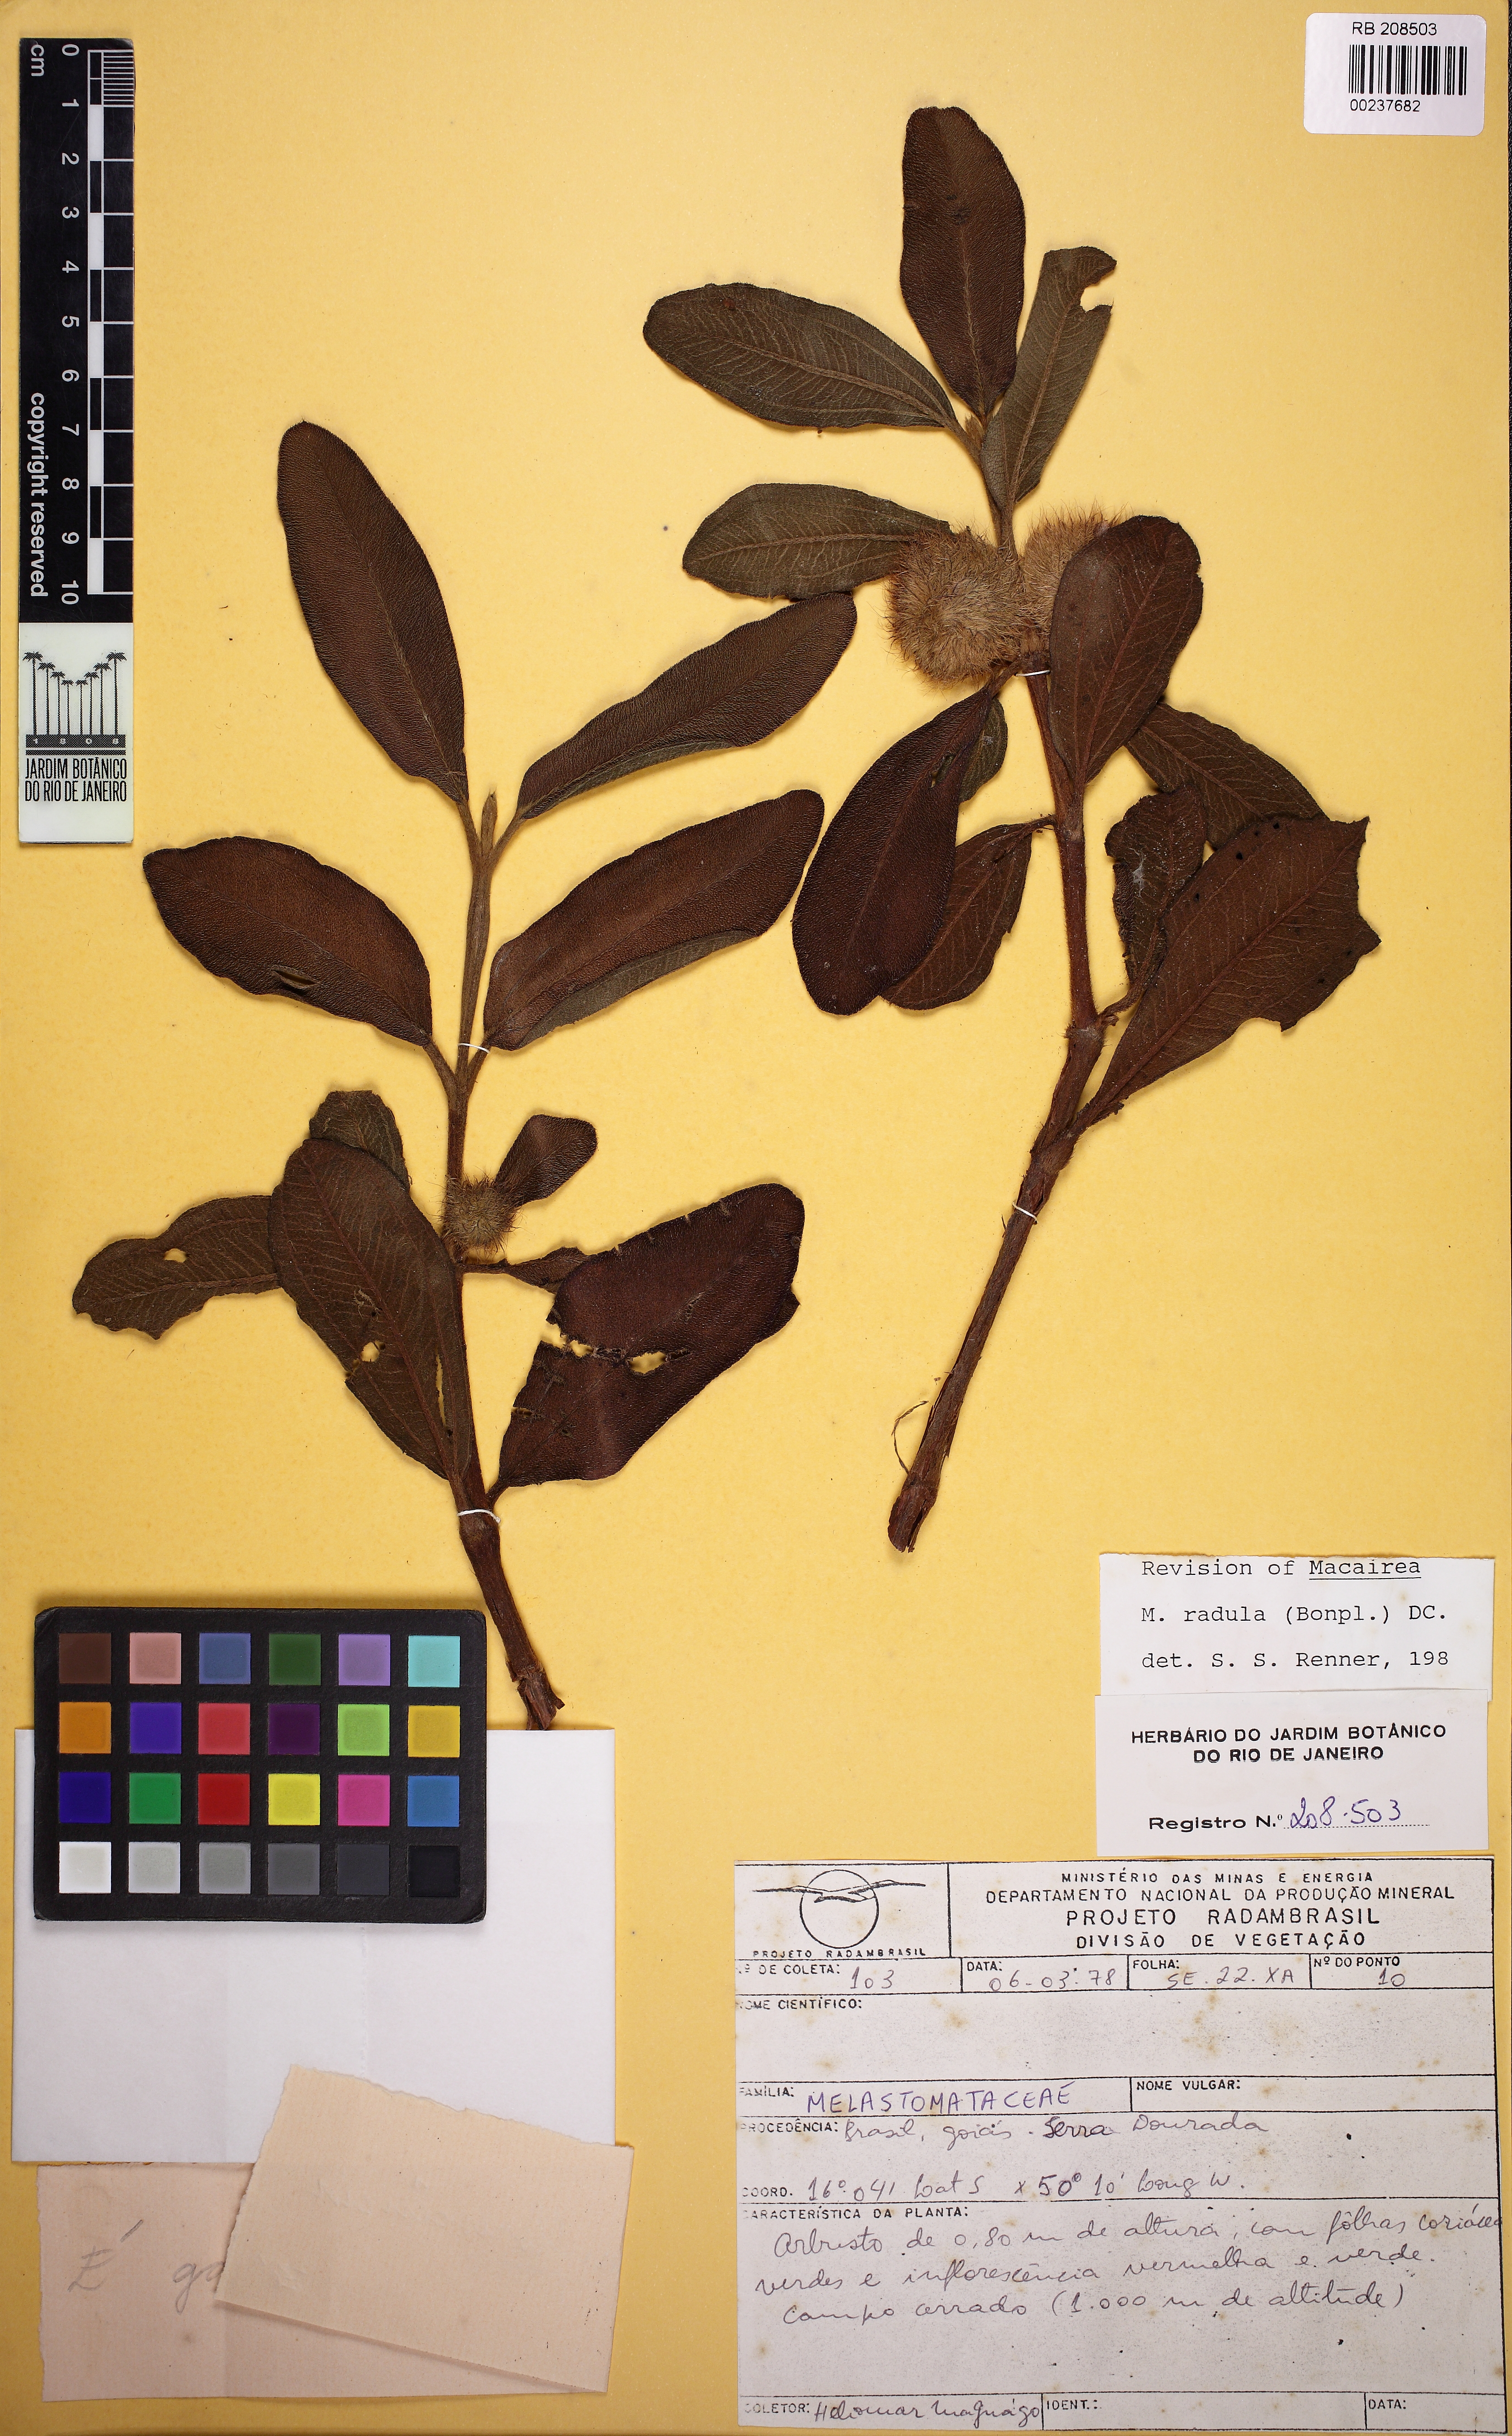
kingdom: Plantae
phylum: Tracheophyta
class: Magnoliopsida
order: Myrtales
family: Melastomataceae
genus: Macairea
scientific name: Macairea radula
